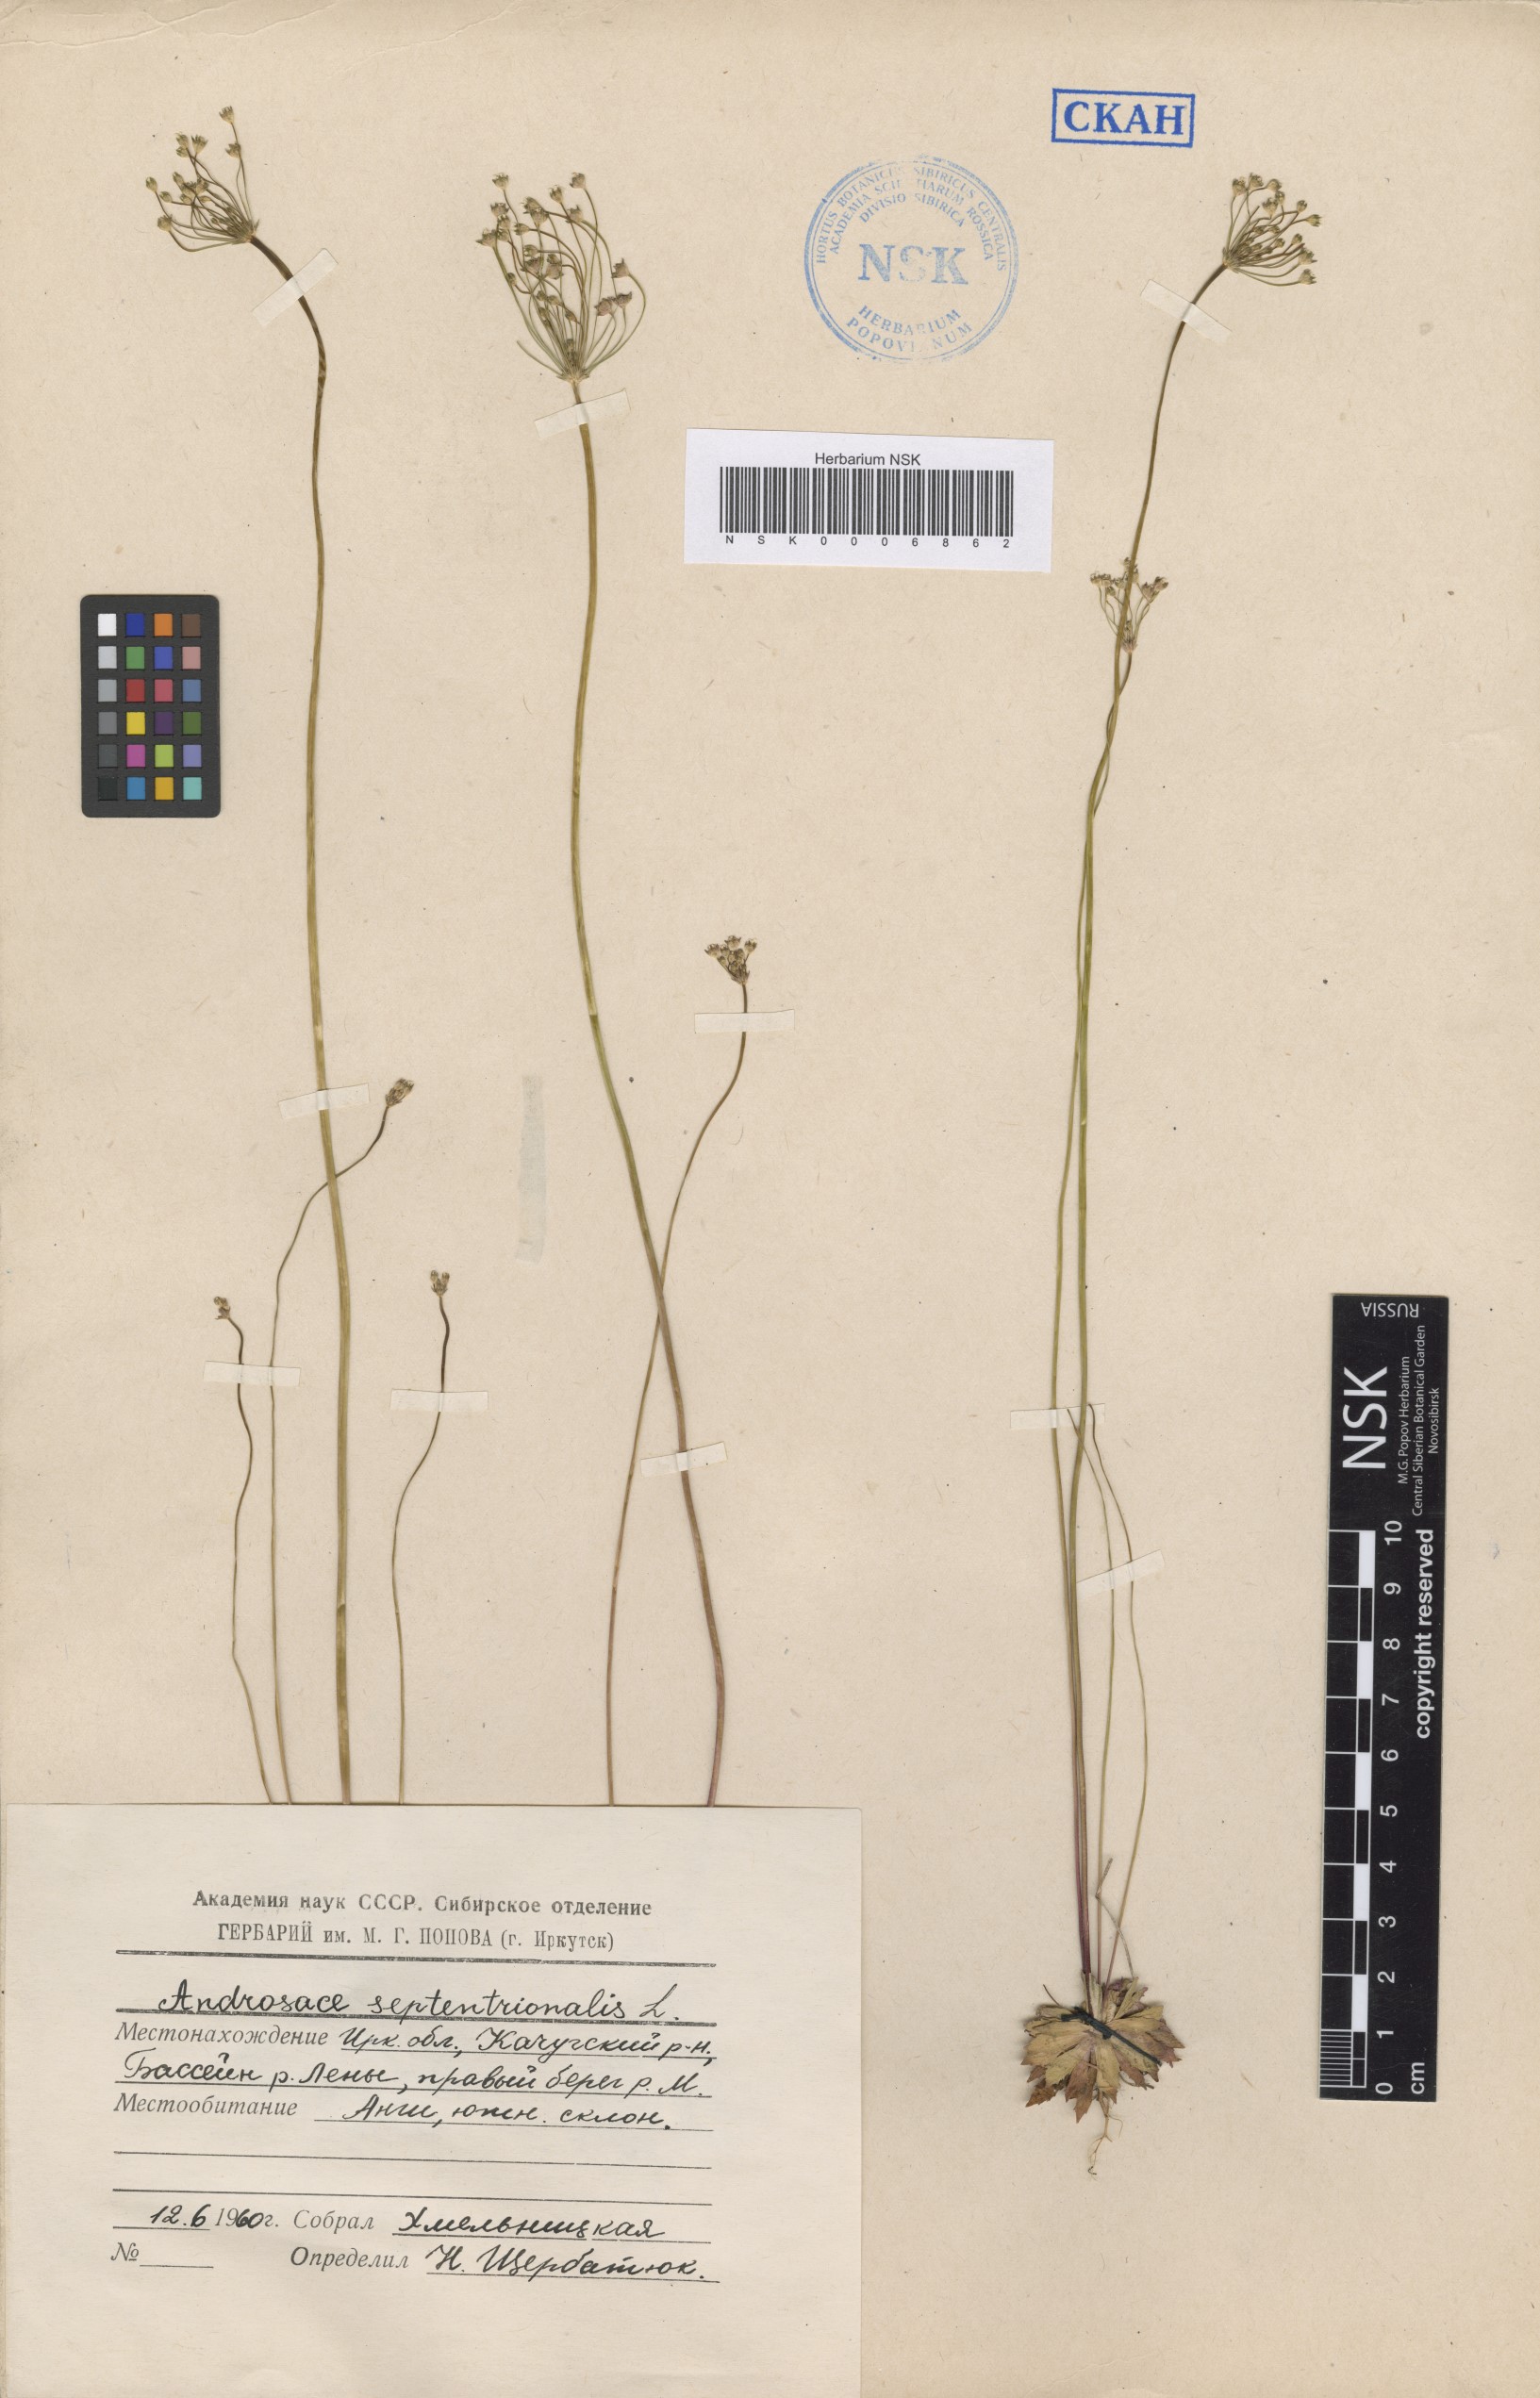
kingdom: Plantae
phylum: Tracheophyta
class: Magnoliopsida
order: Ericales
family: Primulaceae
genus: Androsace
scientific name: Androsace septentrionalis
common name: Hairy northern fairy-candelabra
